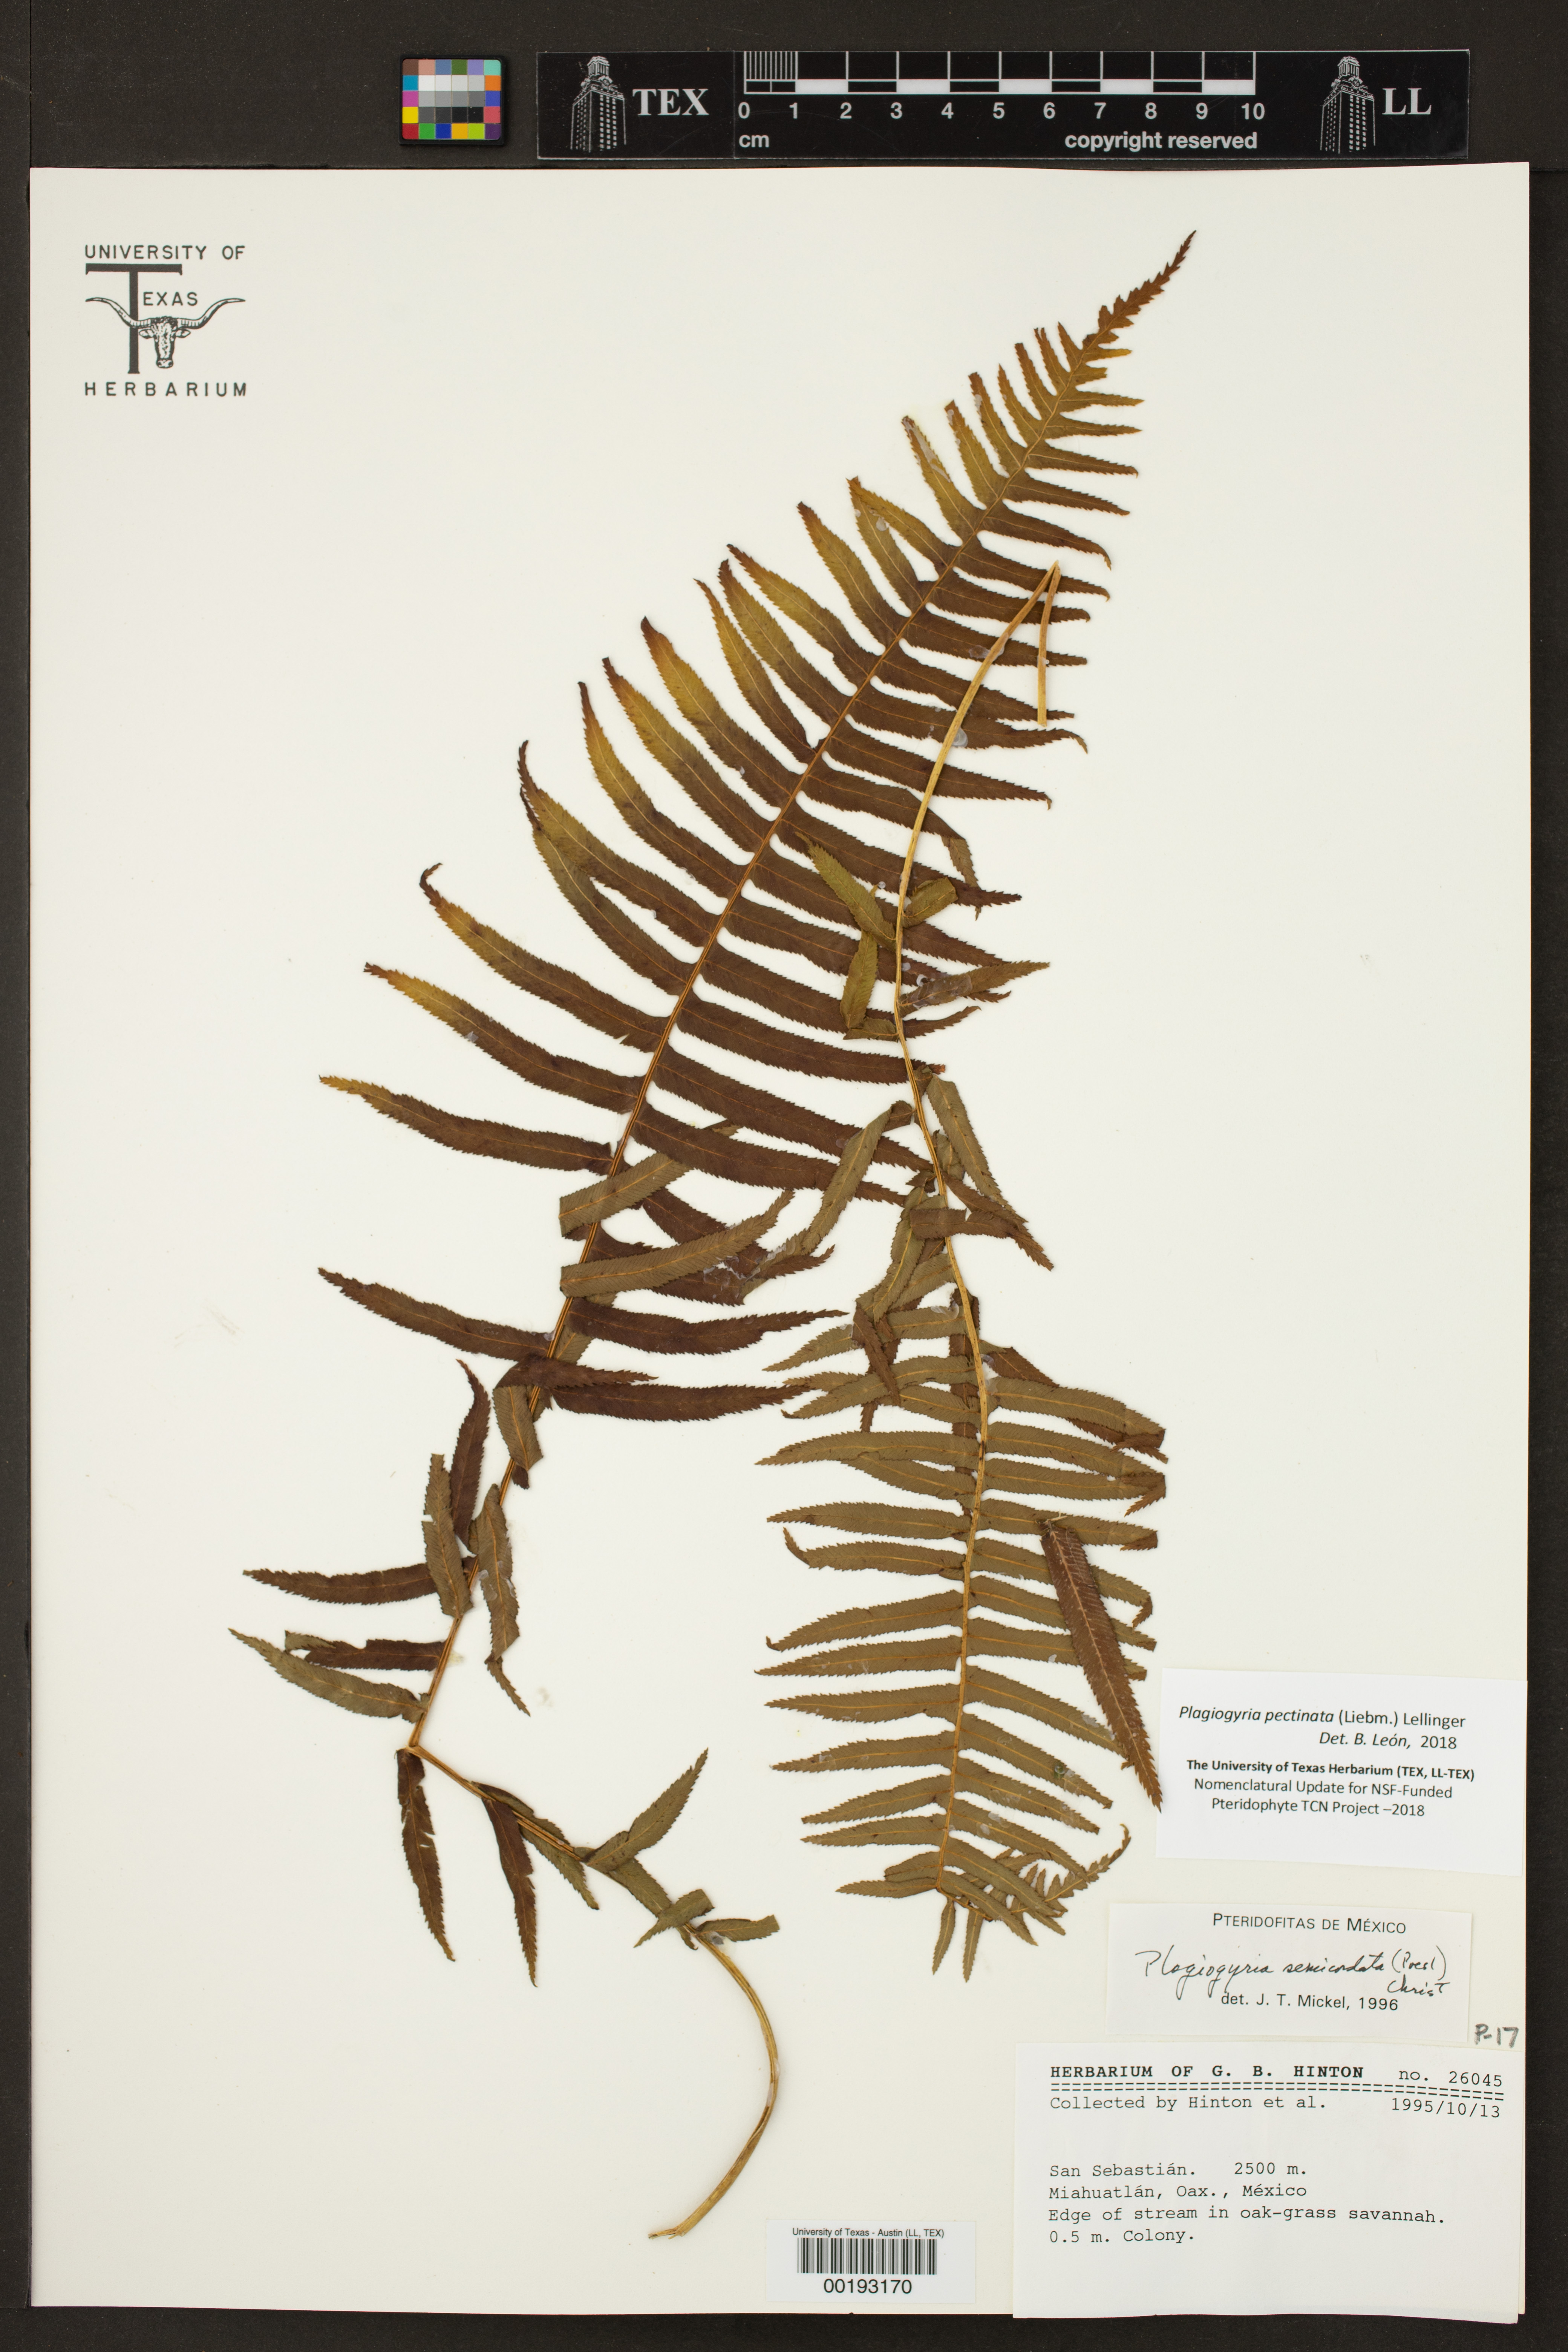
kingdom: Plantae
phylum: Tracheophyta
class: Polypodiopsida
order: Cyatheales
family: Plagiogyriaceae
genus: Plagiogyria
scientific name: Plagiogyria pectinata
